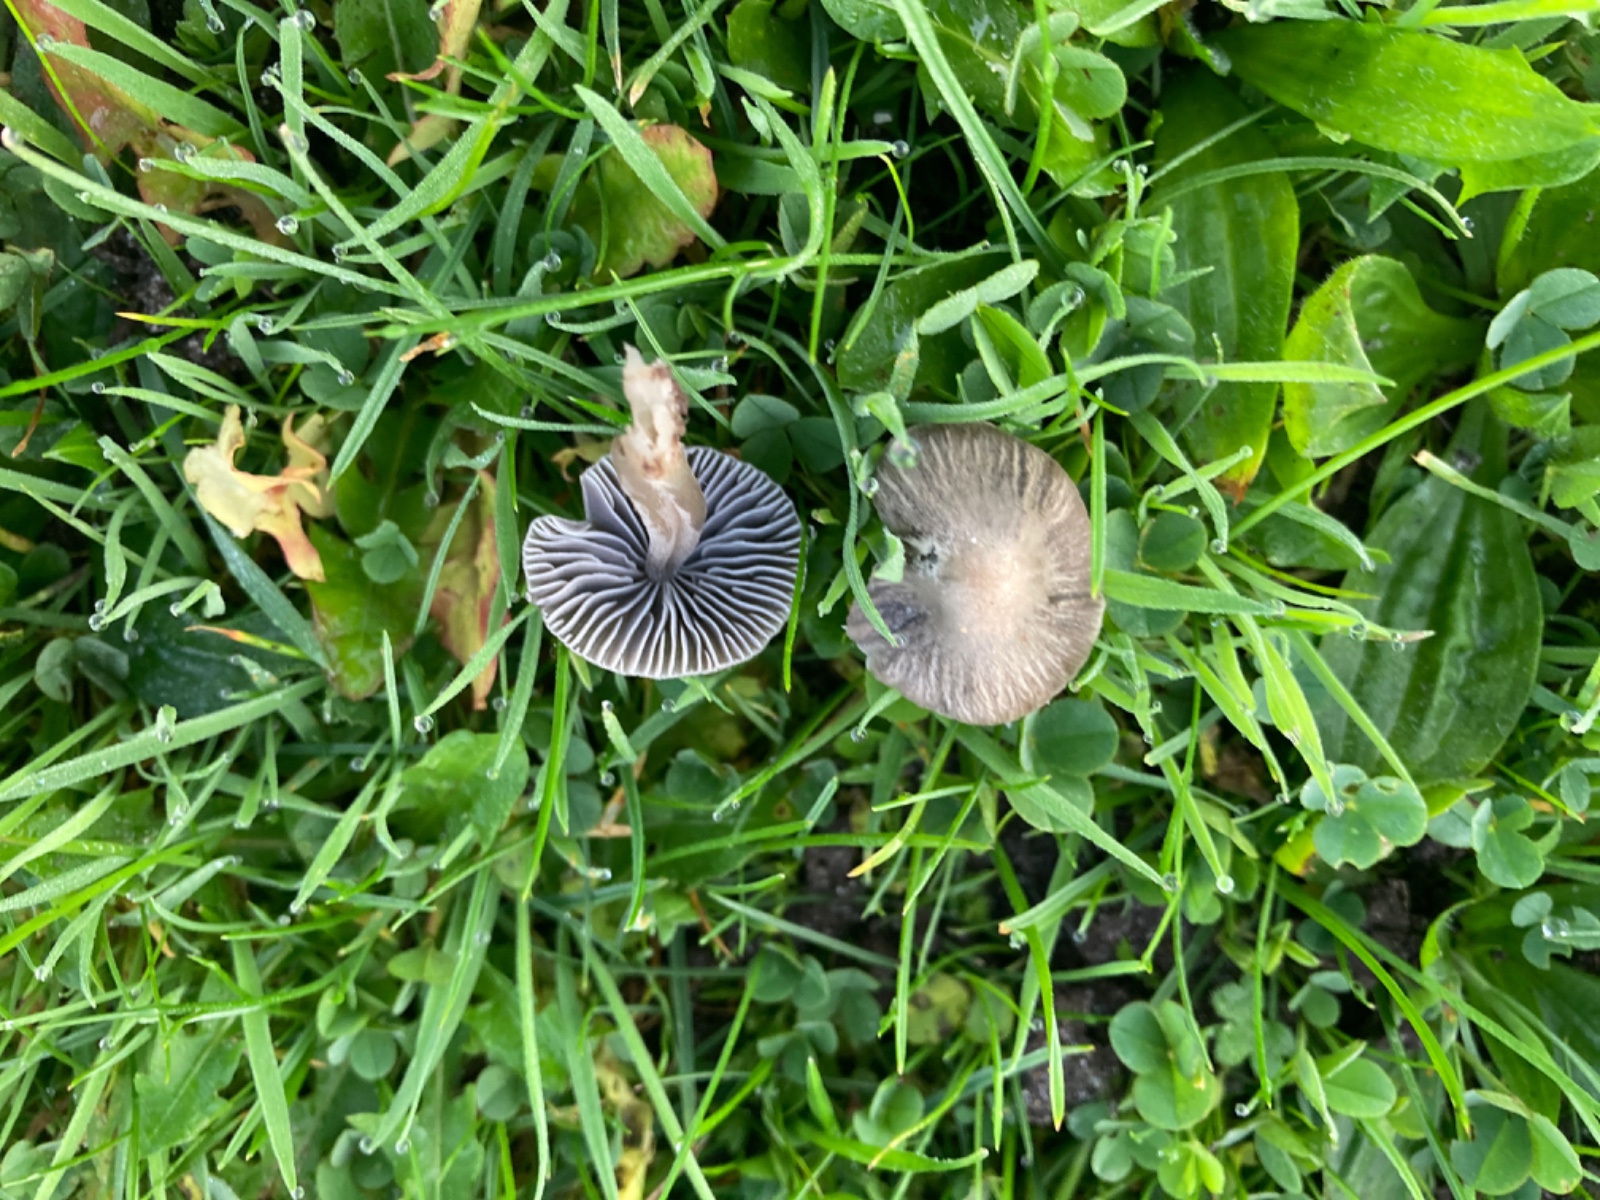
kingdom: Fungi
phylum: Basidiomycota
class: Agaricomycetes
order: Agaricales
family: Mycenaceae
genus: Mycena
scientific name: Mycena aetites
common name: plæne-huesvamp
